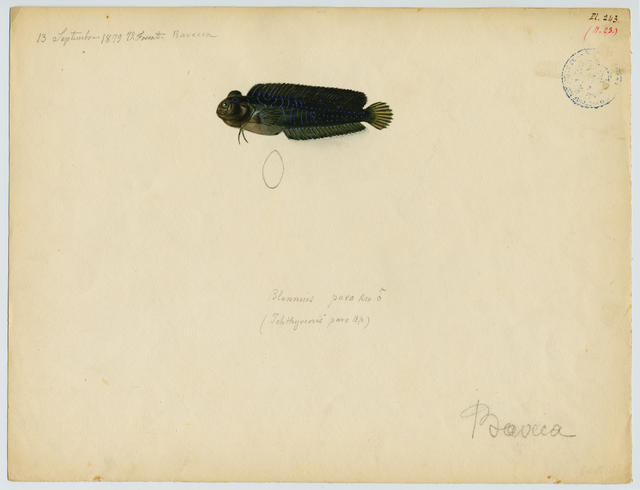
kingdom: Animalia
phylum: Chordata
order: Perciformes
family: Blenniidae
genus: Salaria
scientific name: Salaria pavo
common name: Peacock blenny
